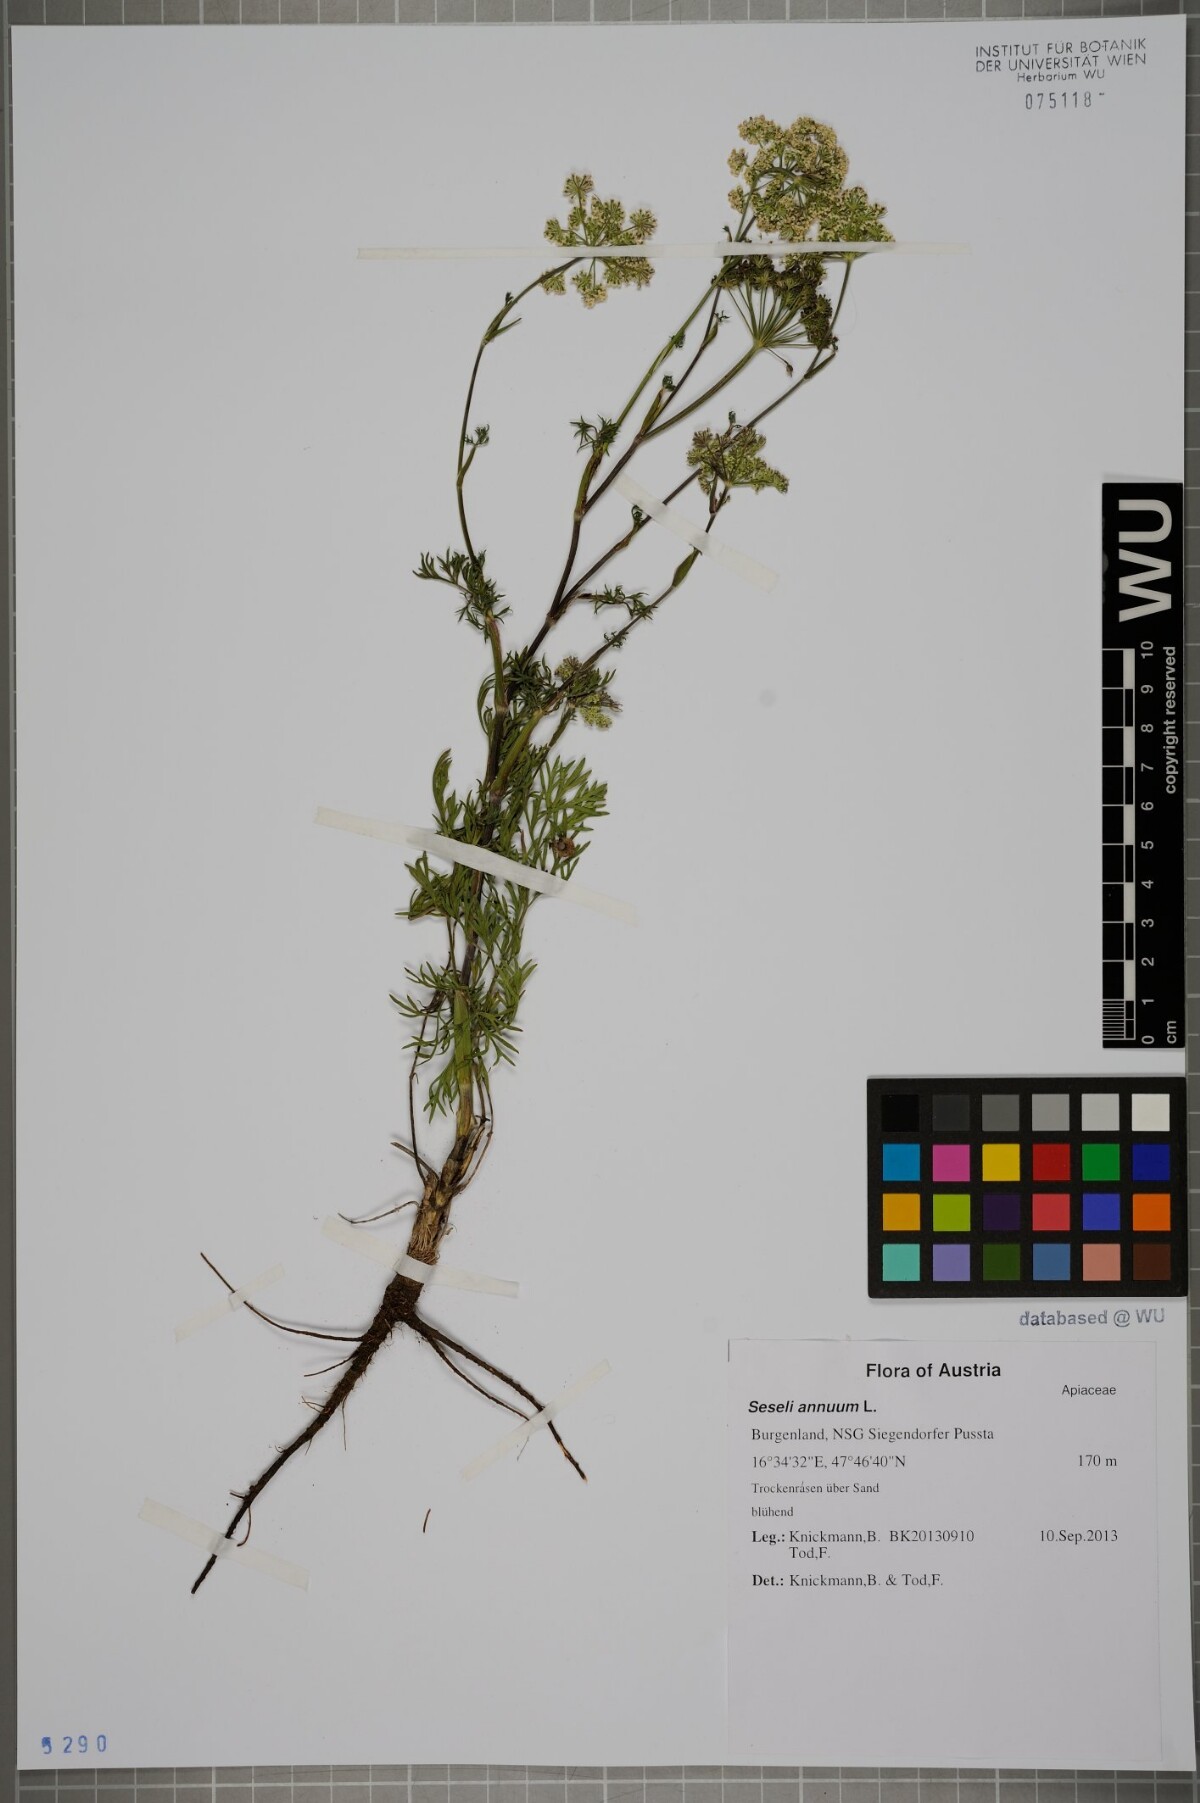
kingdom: Plantae
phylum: Tracheophyta
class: Magnoliopsida
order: Apiales
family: Apiaceae
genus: Seseli
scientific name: Seseli annuum
